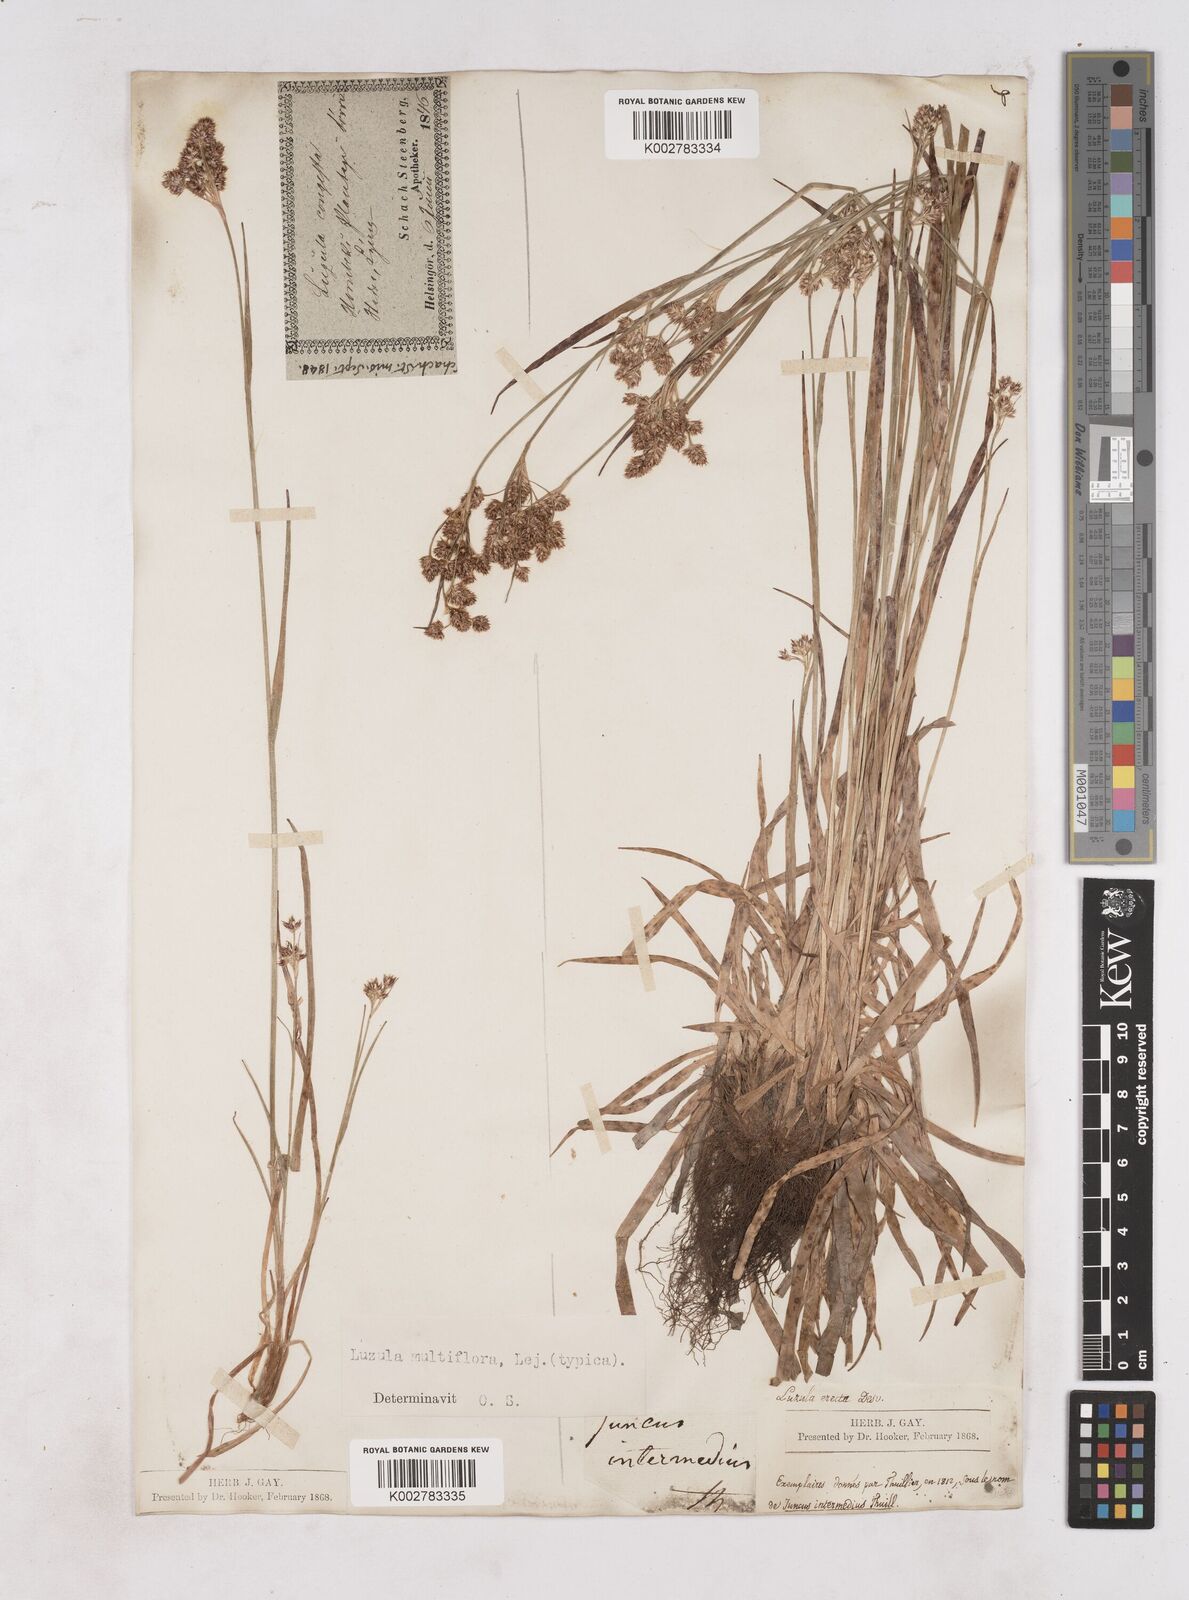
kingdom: Plantae
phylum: Tracheophyta
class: Liliopsida
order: Poales
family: Juncaceae
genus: Luzula
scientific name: Luzula multiflora
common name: Heath wood-rush
